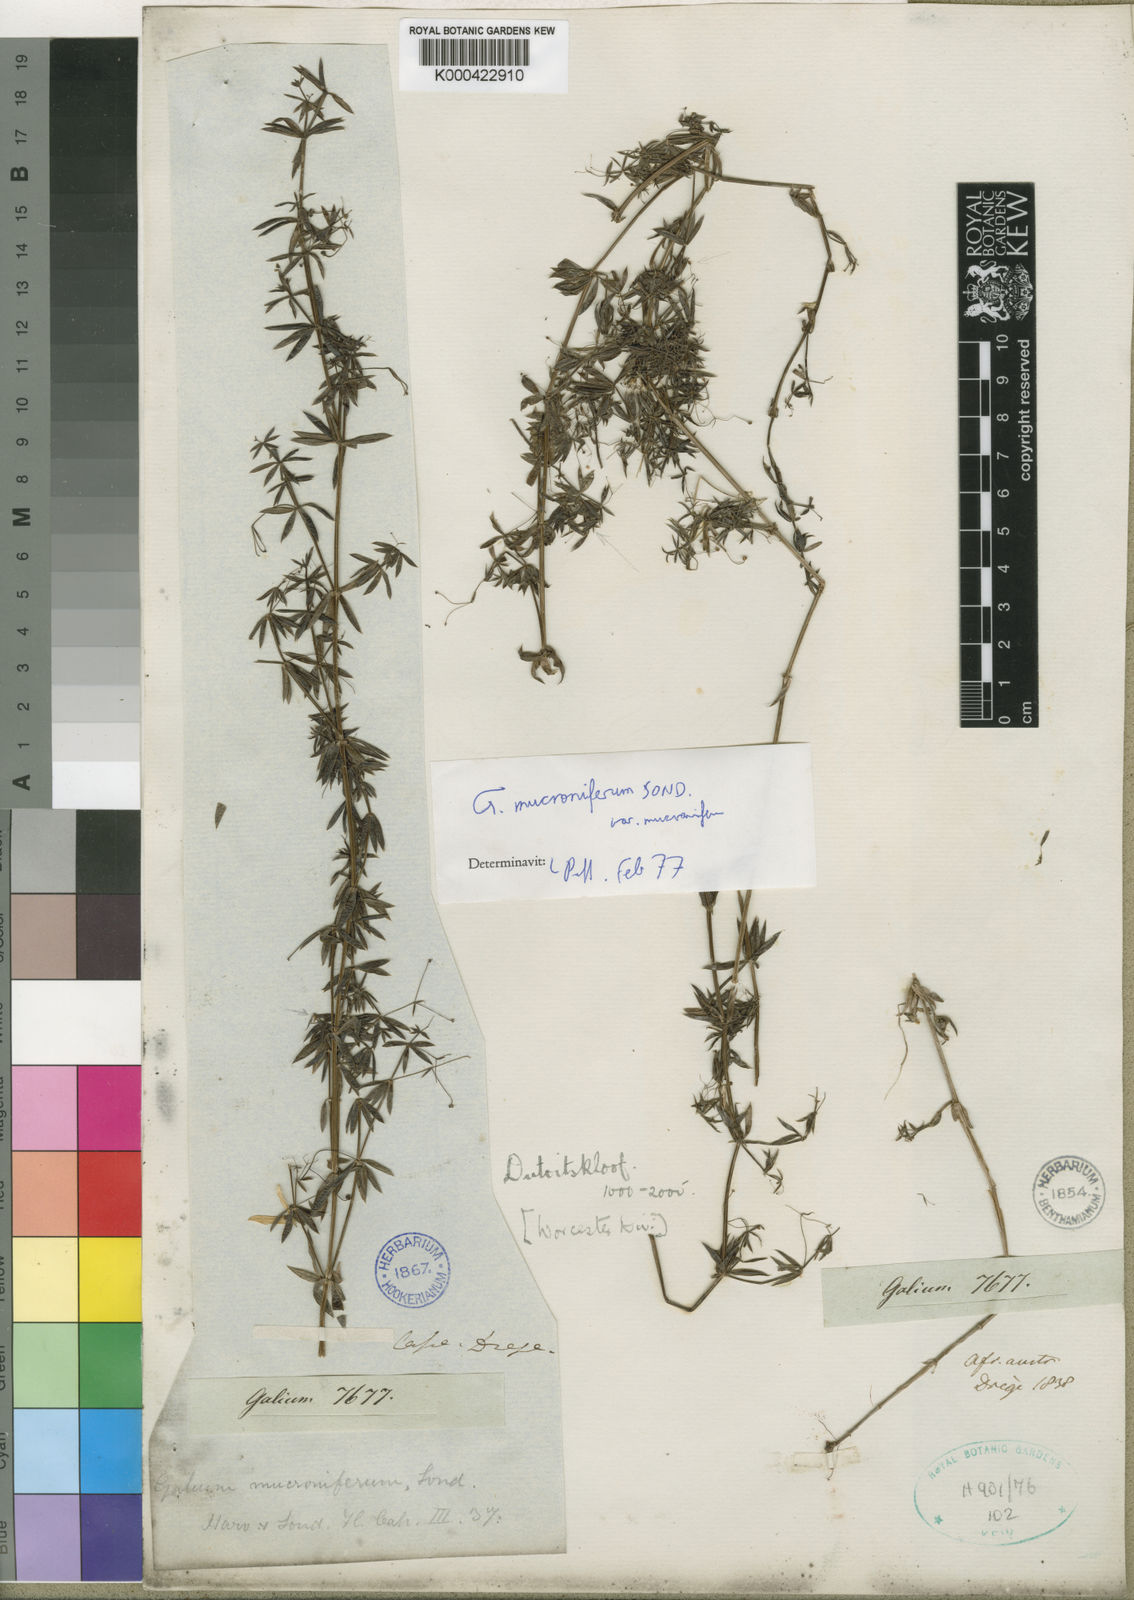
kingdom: Plantae
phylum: Tracheophyta
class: Magnoliopsida
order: Gentianales
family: Rubiaceae
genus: Galium
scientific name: Galium mucroniferum
